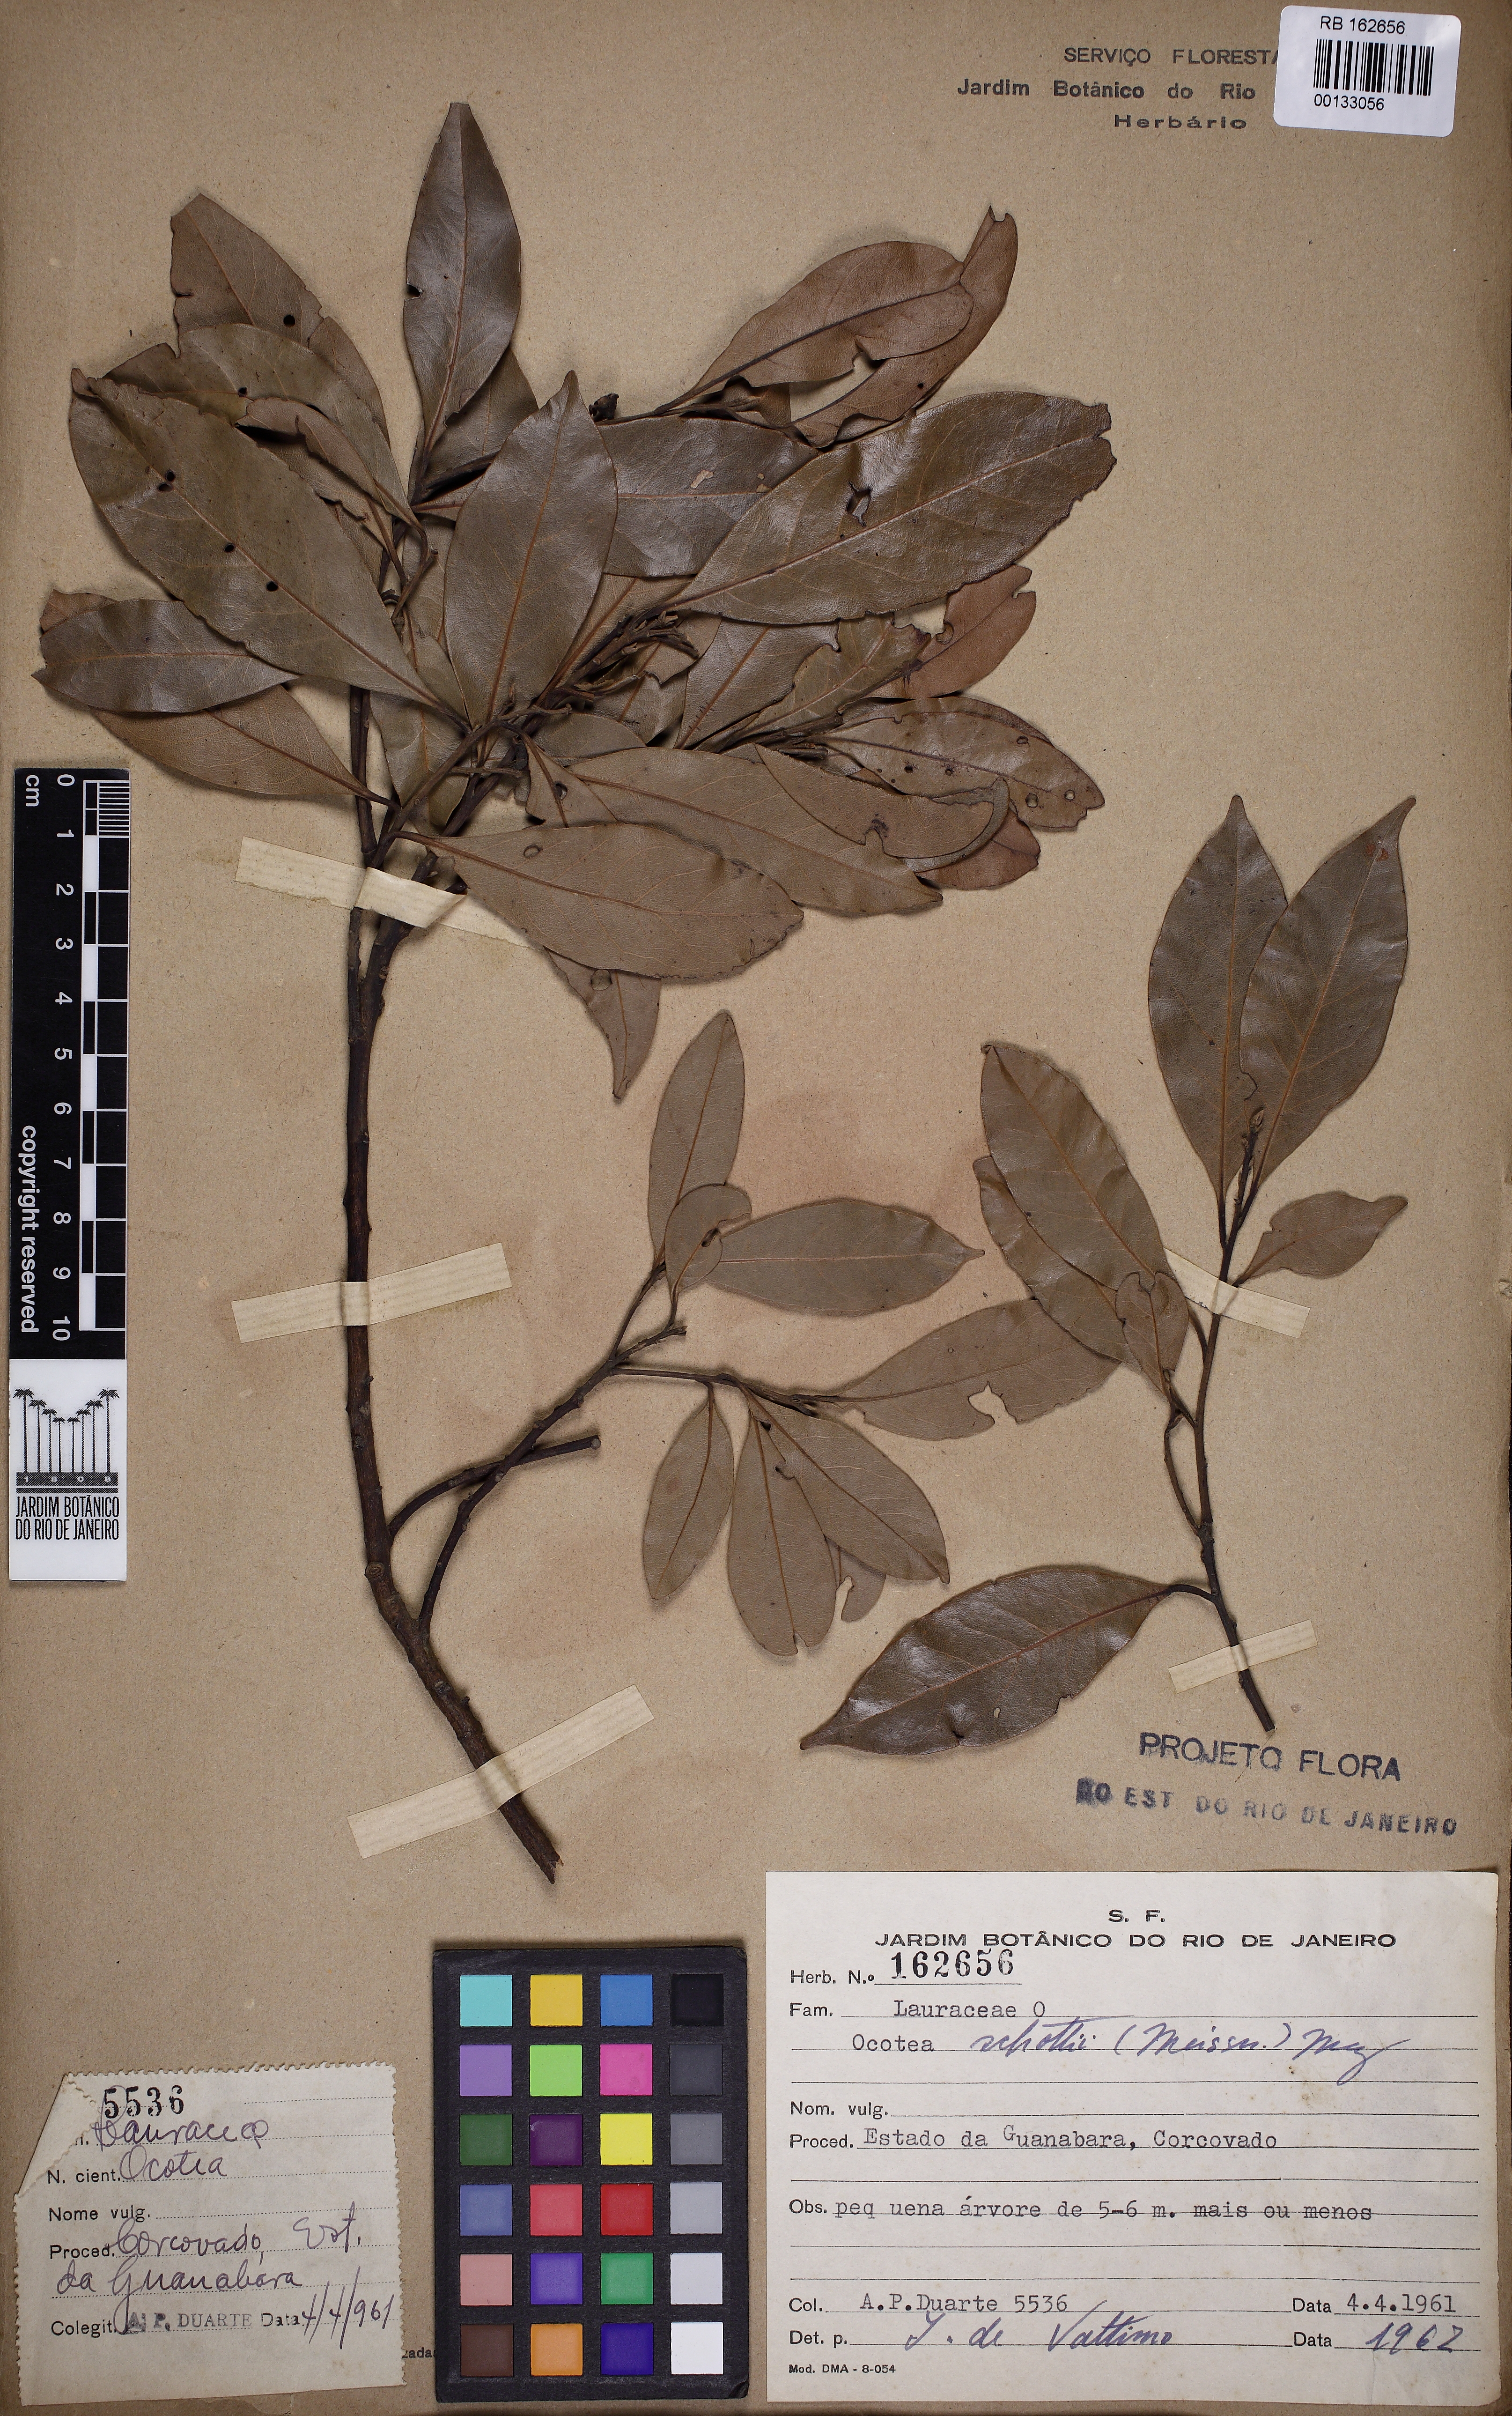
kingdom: Plantae
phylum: Tracheophyta
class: Magnoliopsida
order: Laurales
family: Lauraceae
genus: Ocotea
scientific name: Ocotea lancifolia
